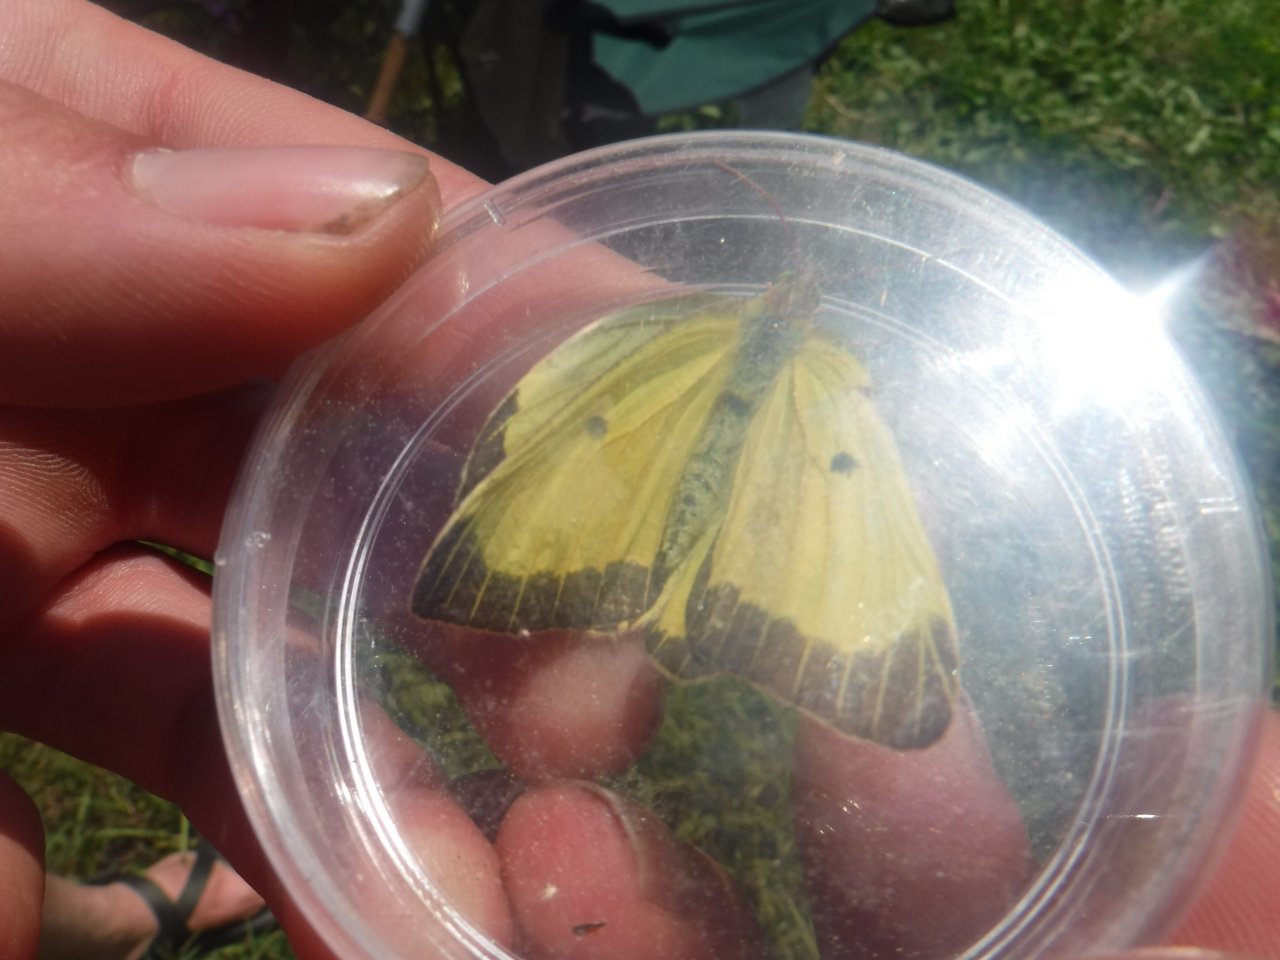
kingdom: Animalia
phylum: Arthropoda
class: Insecta
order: Lepidoptera
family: Pieridae
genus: Colias
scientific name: Colias alexandra
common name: Queen Alexandra's Sulphur
